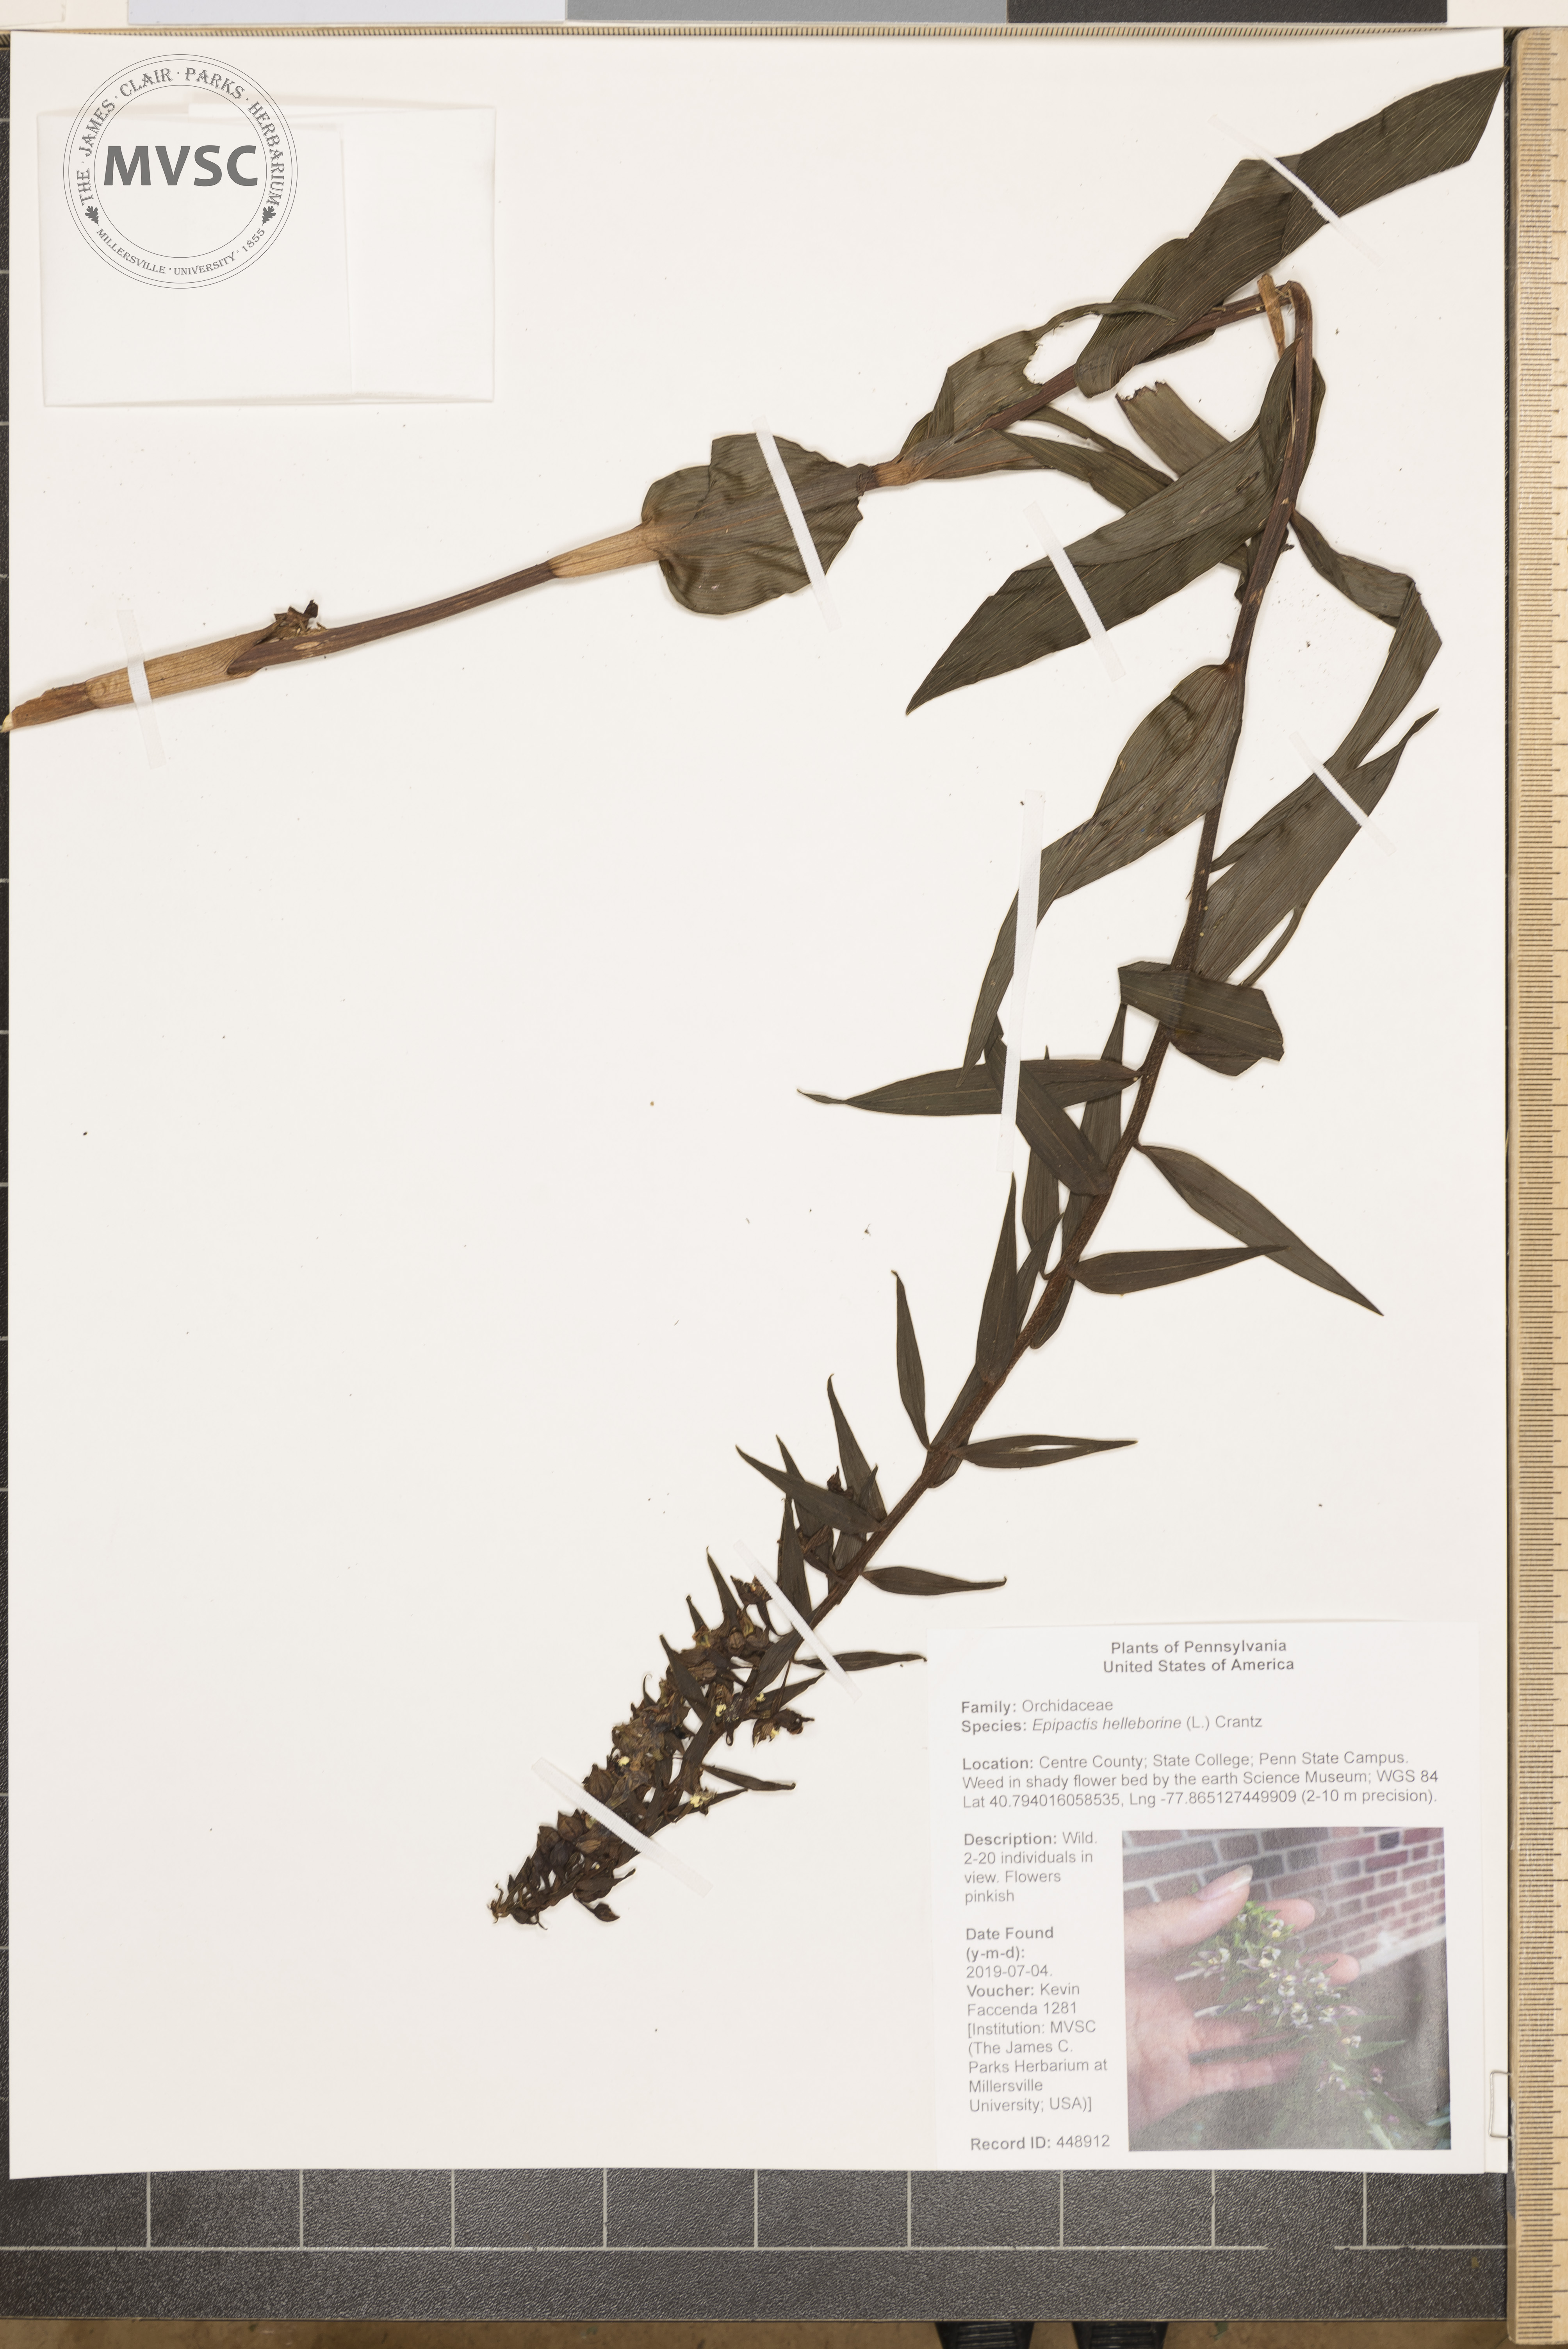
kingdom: Plantae
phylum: Tracheophyta
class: Liliopsida
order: Asparagales
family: Orchidaceae
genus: Epipactis
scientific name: Epipactis helleborine
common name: Broad-leaved helleborine
